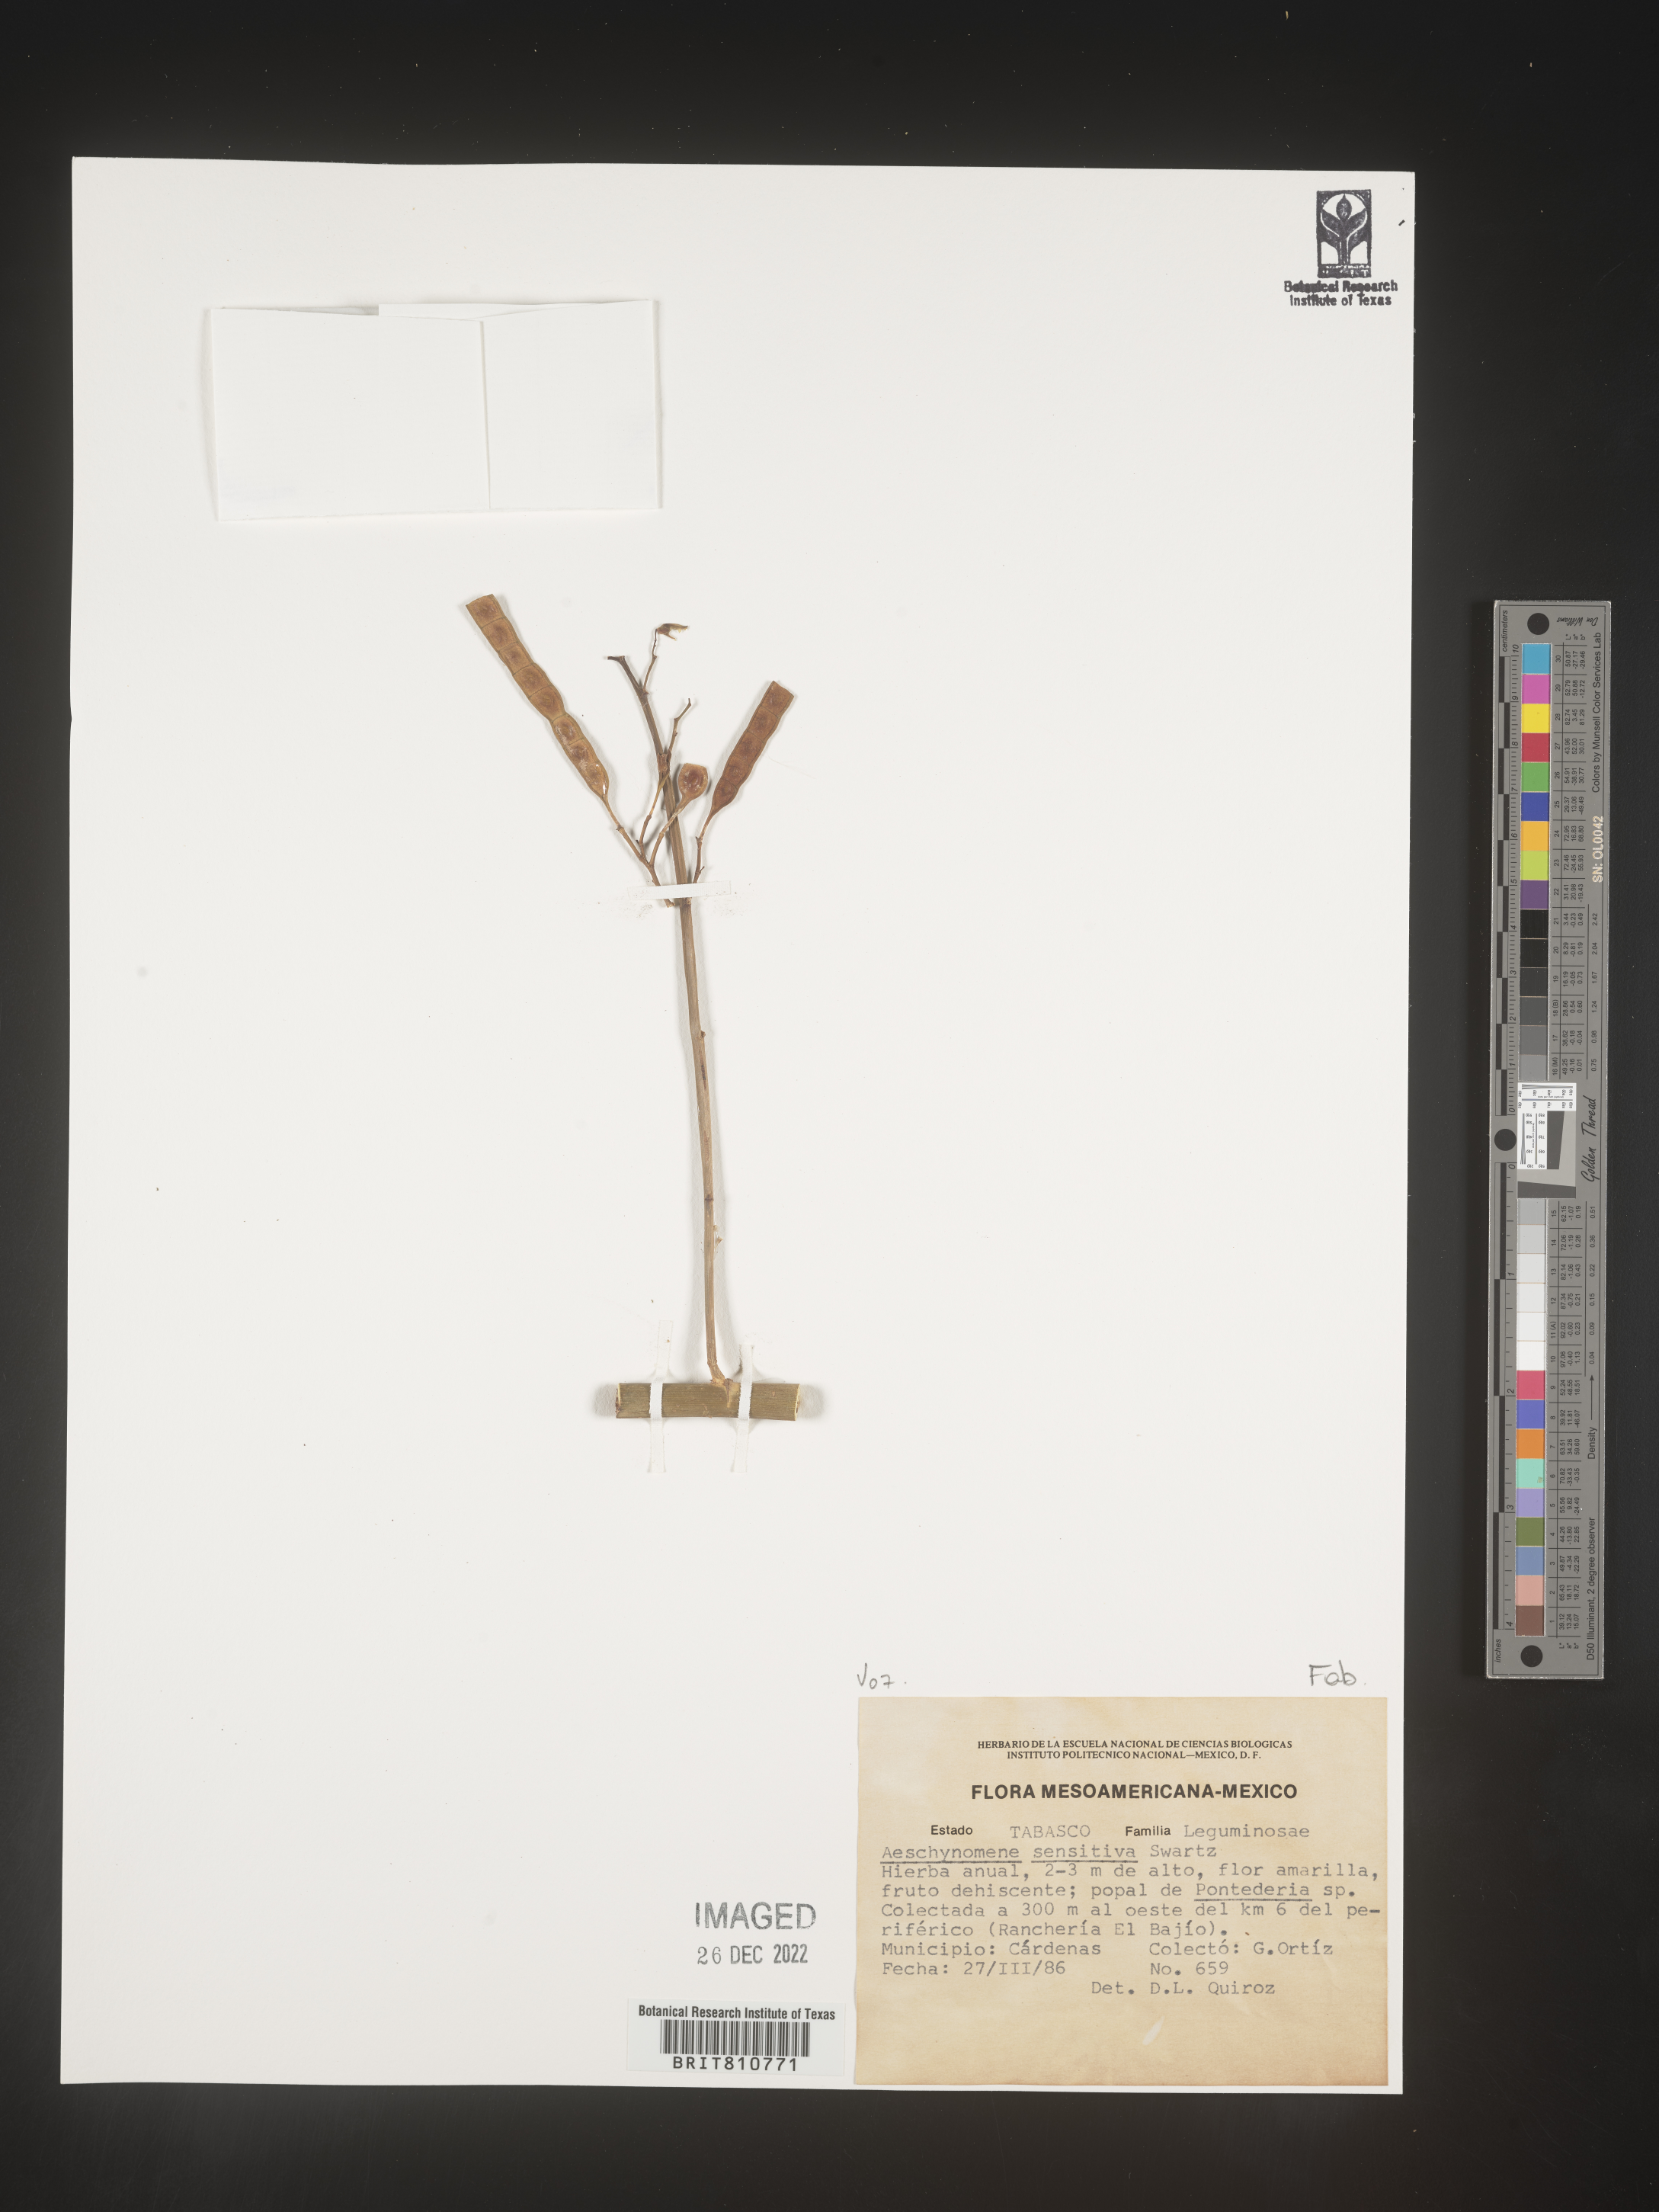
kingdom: Plantae
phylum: Tracheophyta
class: Magnoliopsida
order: Fabales
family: Fabaceae
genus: Aeschynomene
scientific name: Aeschynomene
